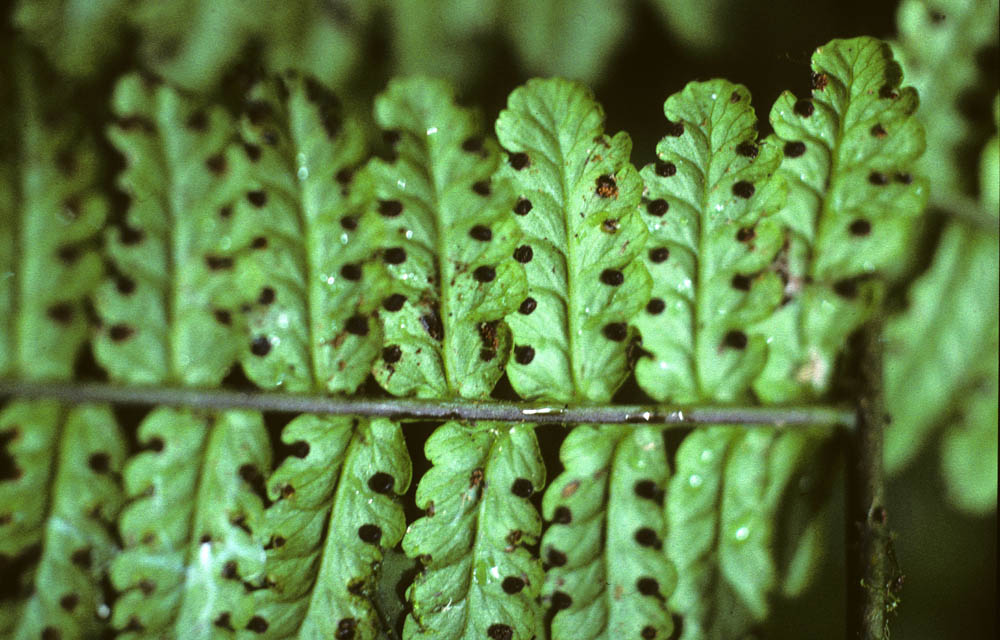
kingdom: Plantae
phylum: Tracheophyta
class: Polypodiopsida
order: Polypodiales
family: Dennstaedtiaceae
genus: Dennstaedtia
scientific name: Dennstaedtia vagans
